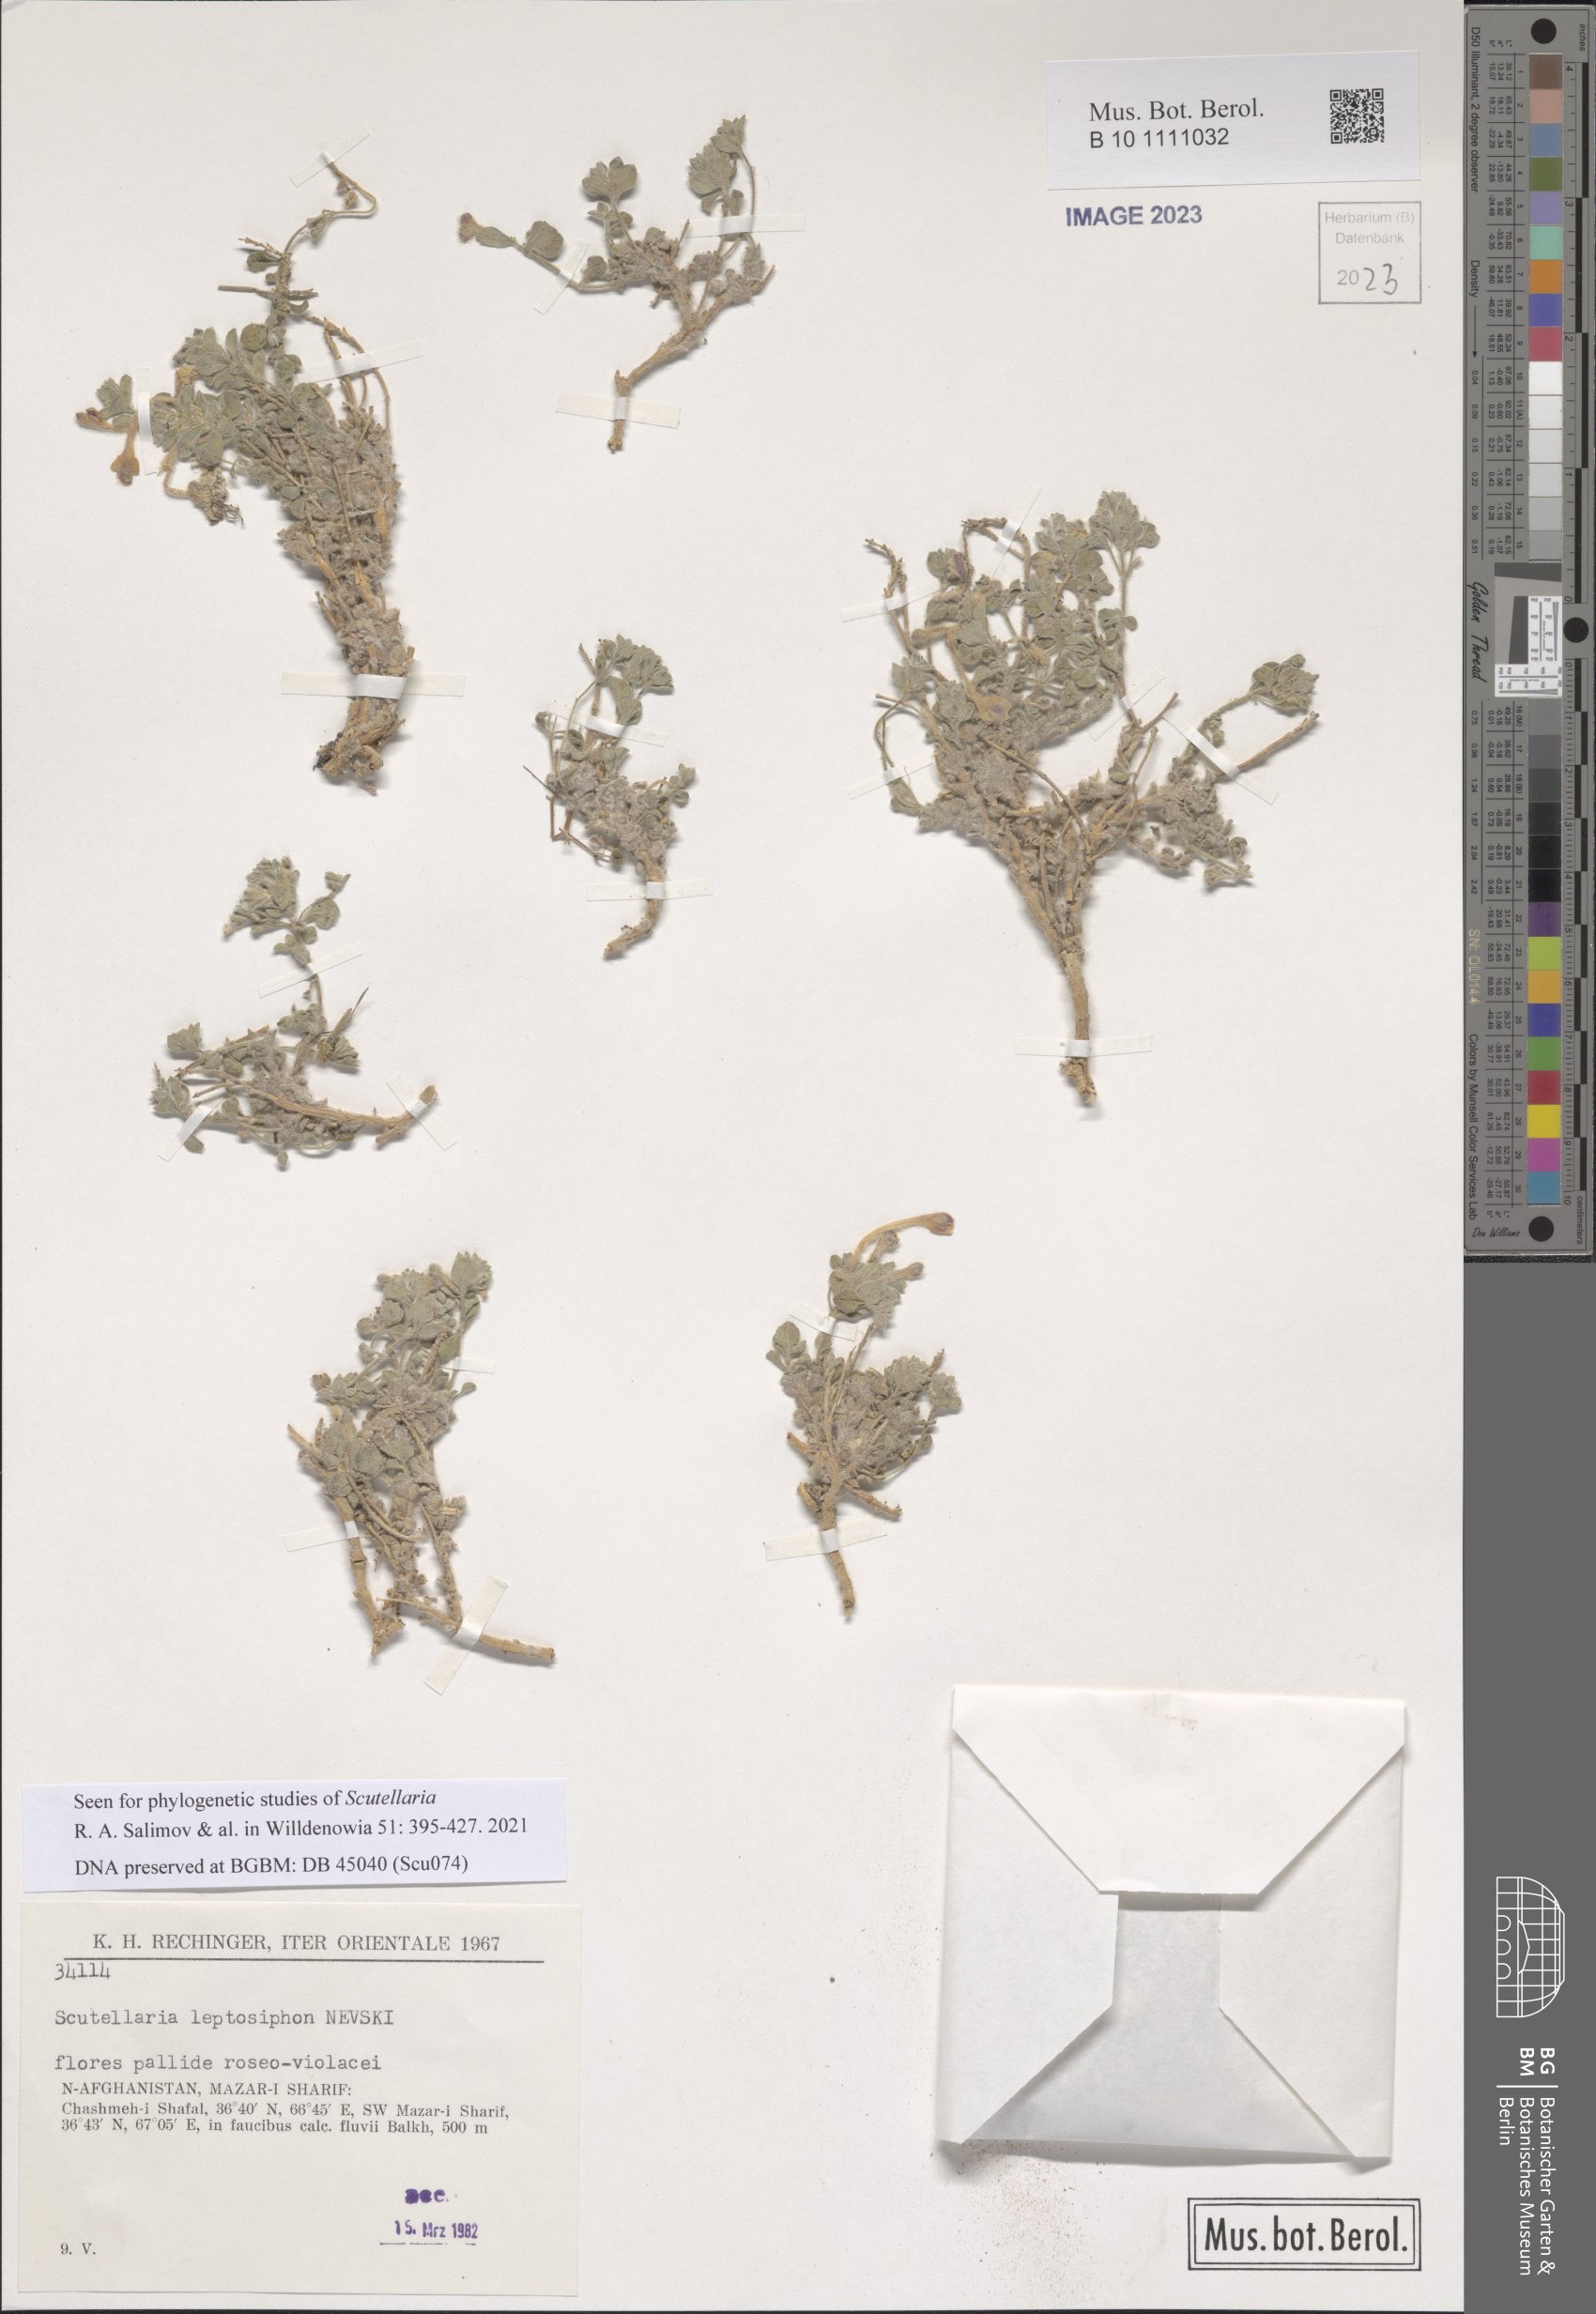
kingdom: Plantae
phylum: Tracheophyta
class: Magnoliopsida
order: Lamiales
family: Lamiaceae
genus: Scutellaria
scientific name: Scutellaria leptosiphon
